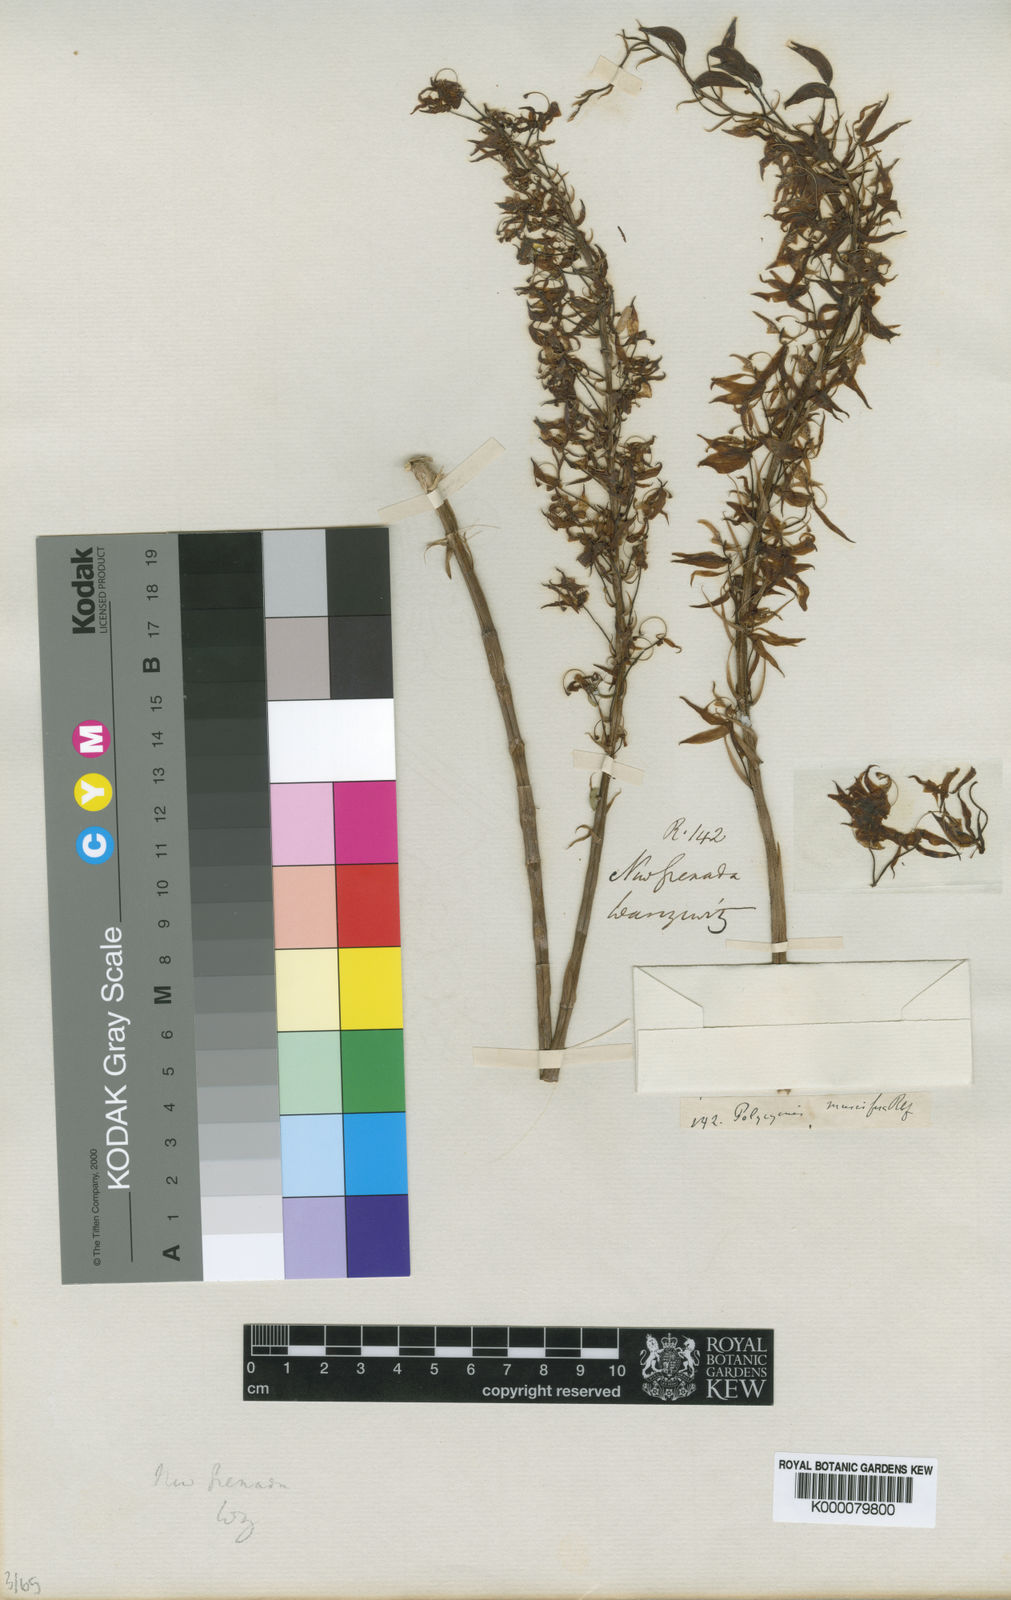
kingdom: Plantae
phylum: Tracheophyta
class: Liliopsida
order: Asparagales
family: Orchidaceae
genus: Polycycnis
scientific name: Polycycnis muscifera
